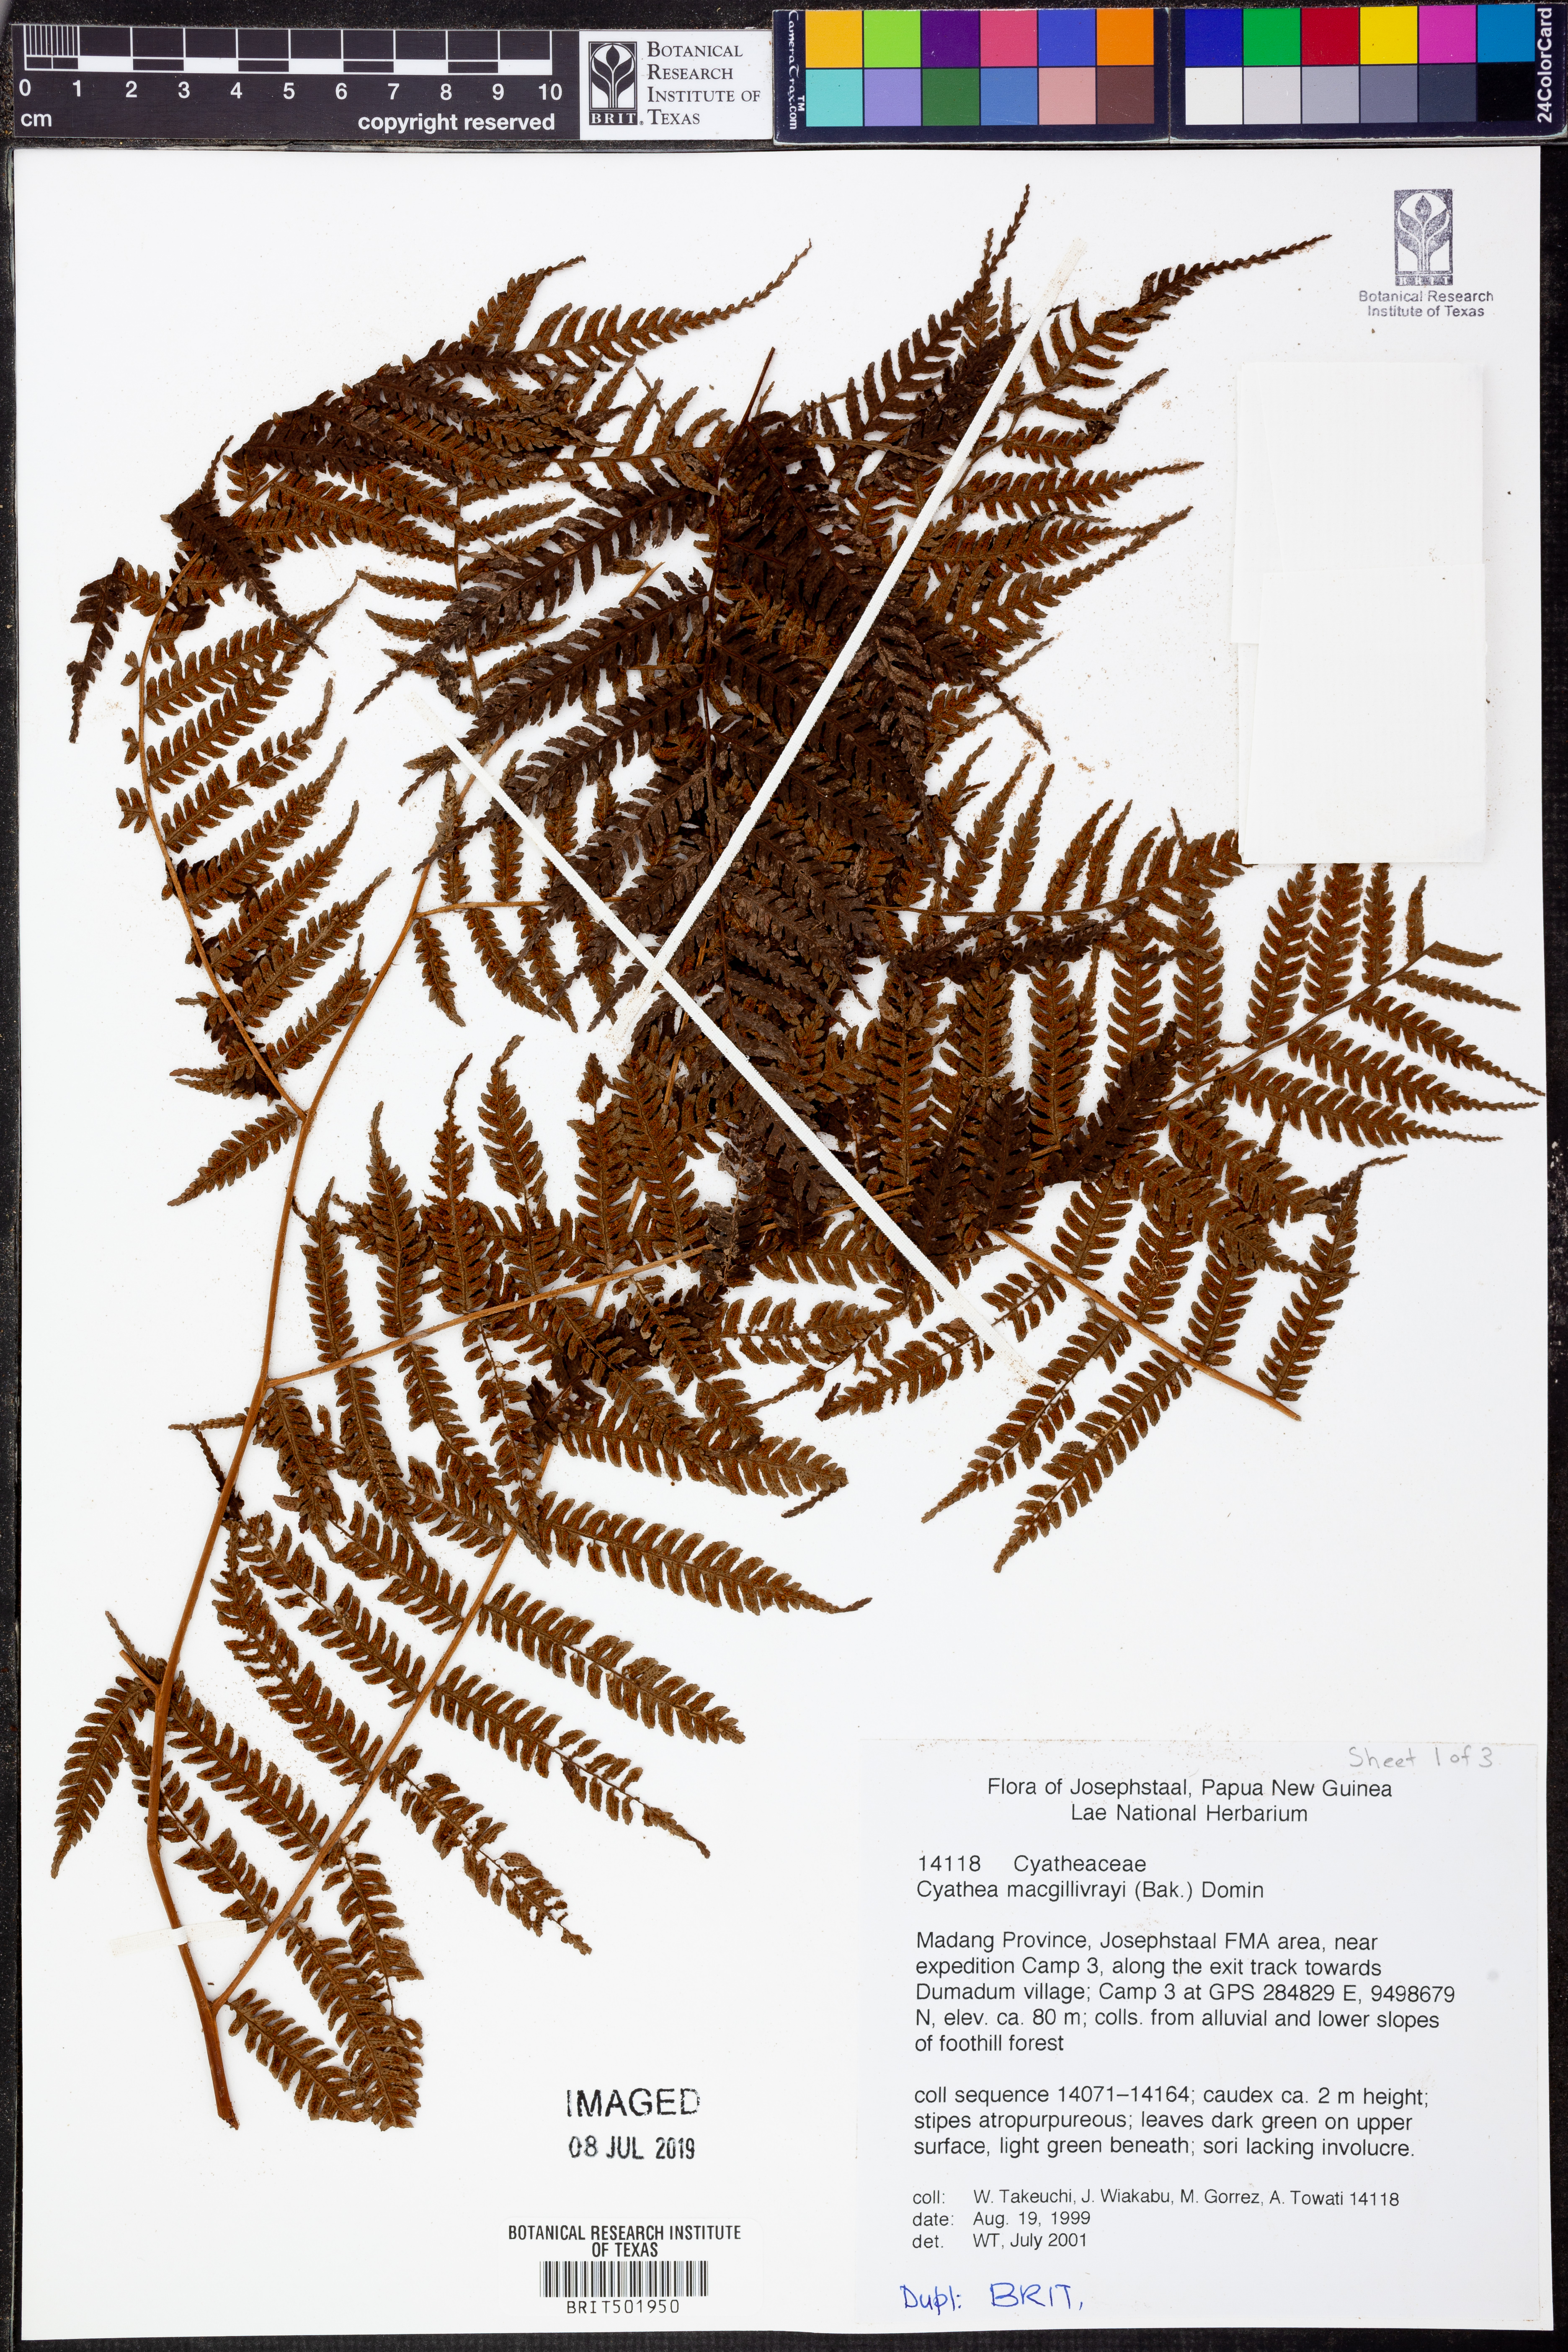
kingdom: Plantae
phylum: Tracheophyta
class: Polypodiopsida
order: Cyatheales
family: Cyatheaceae
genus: Alsophila
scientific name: Alsophila macgillivrayi
